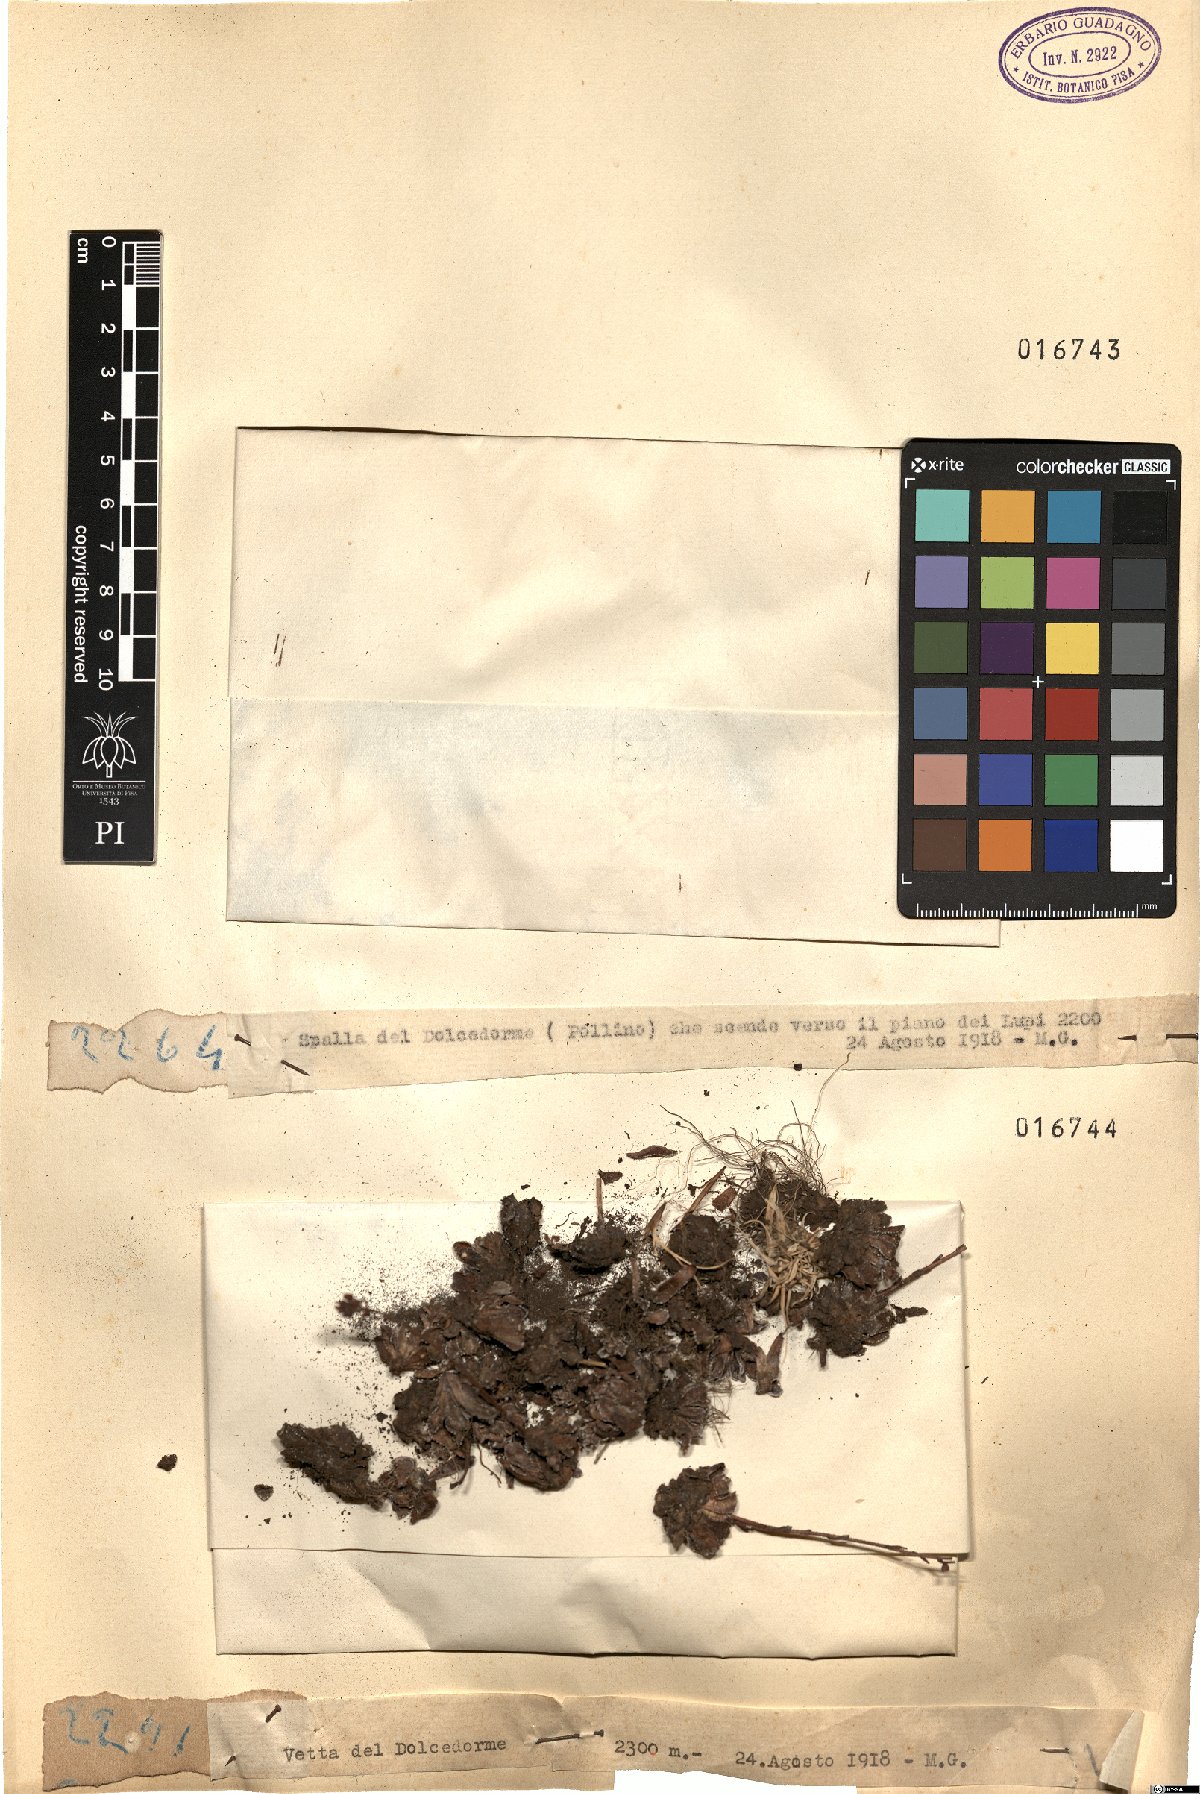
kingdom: Plantae
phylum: Tracheophyta
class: Magnoliopsida
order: Saxifragales
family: Saxifragaceae
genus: Saxifraga
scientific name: Saxifraga
